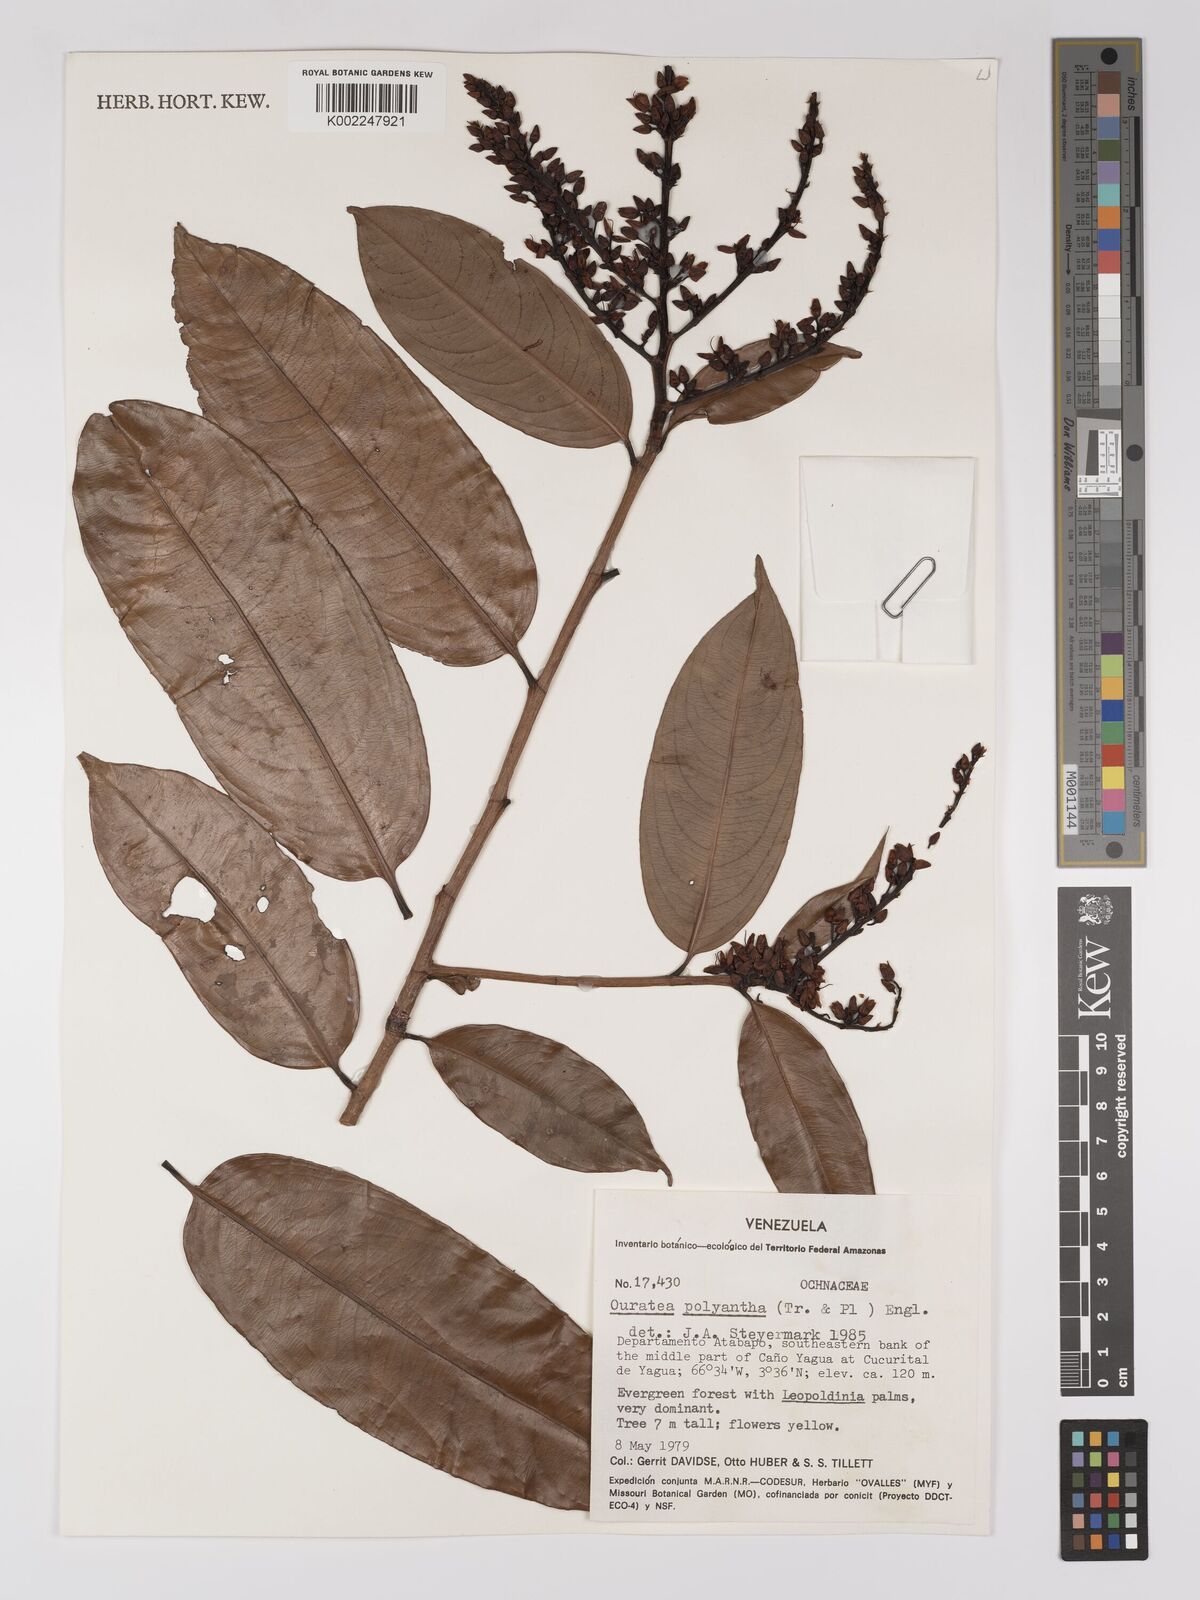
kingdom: Plantae
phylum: Tracheophyta
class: Magnoliopsida
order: Malpighiales
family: Ochnaceae
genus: Ouratea
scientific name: Ouratea polyantha
